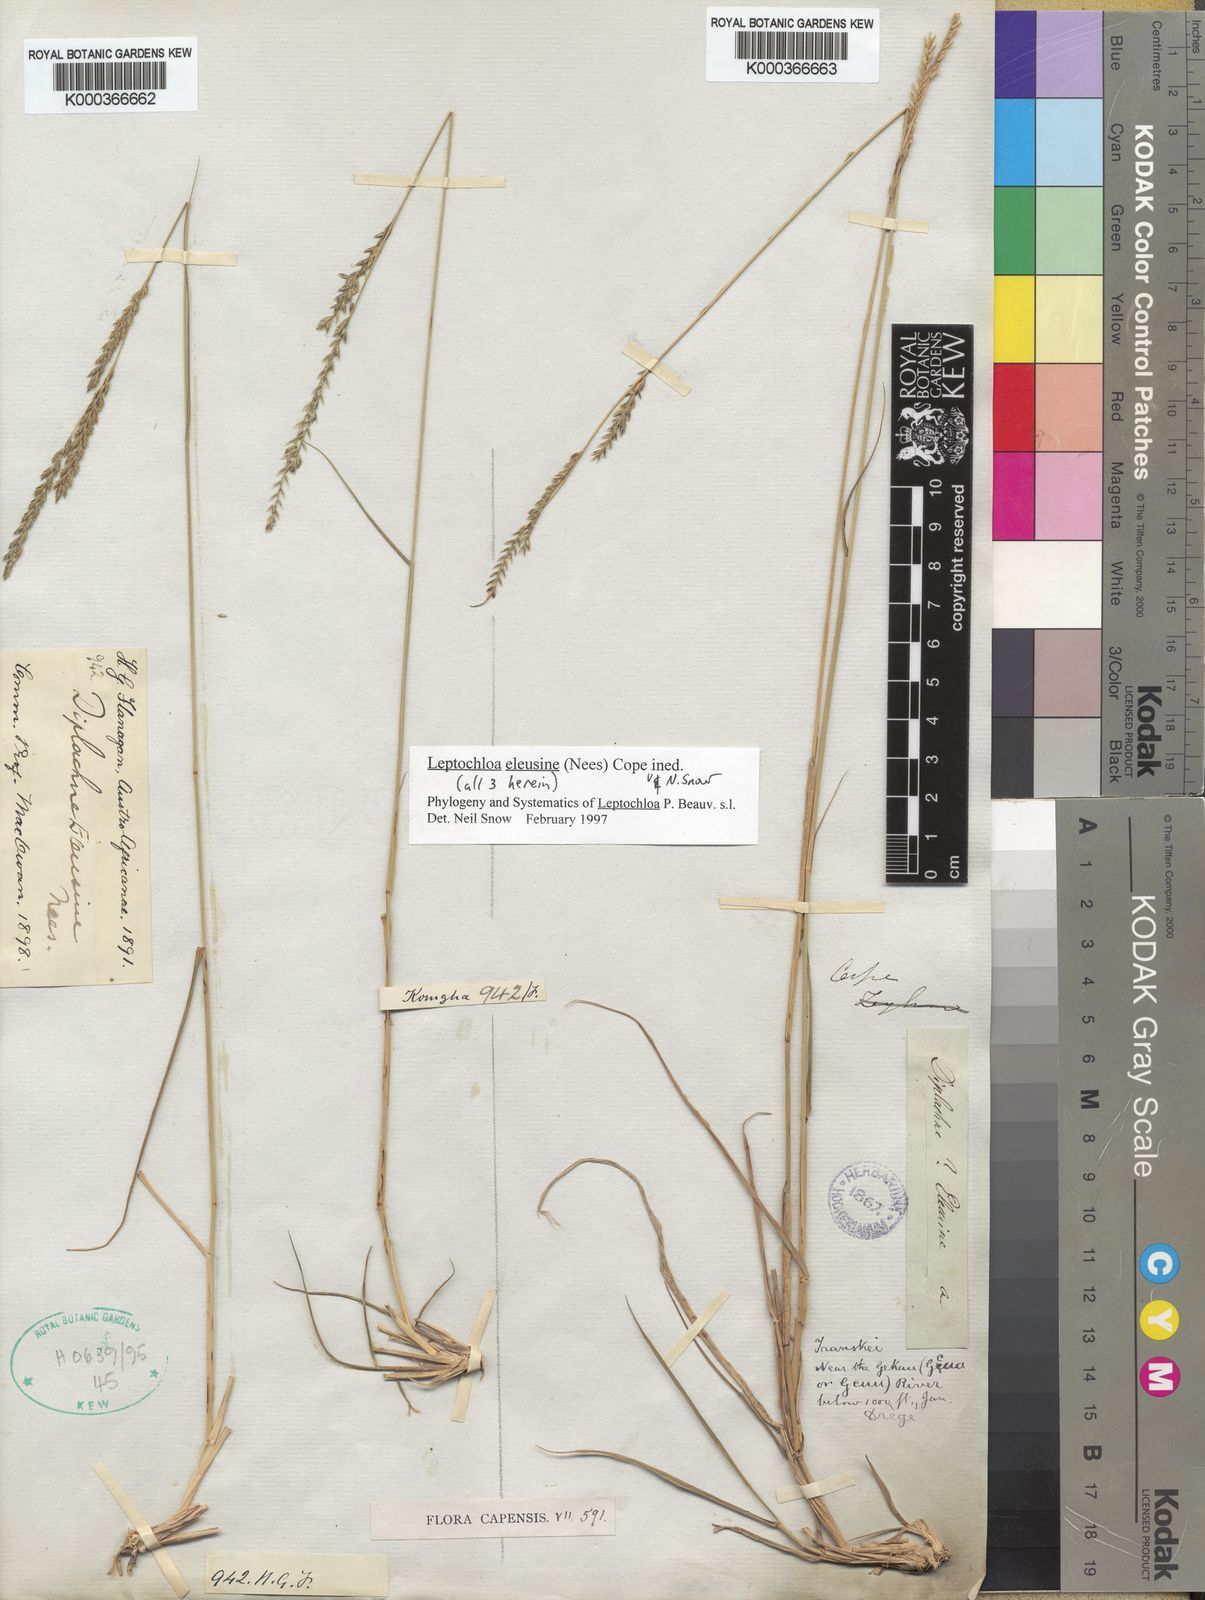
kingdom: Plantae
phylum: Tracheophyta
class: Liliopsida
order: Poales
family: Poaceae
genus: Disakisperma
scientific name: Disakisperma eleusine
